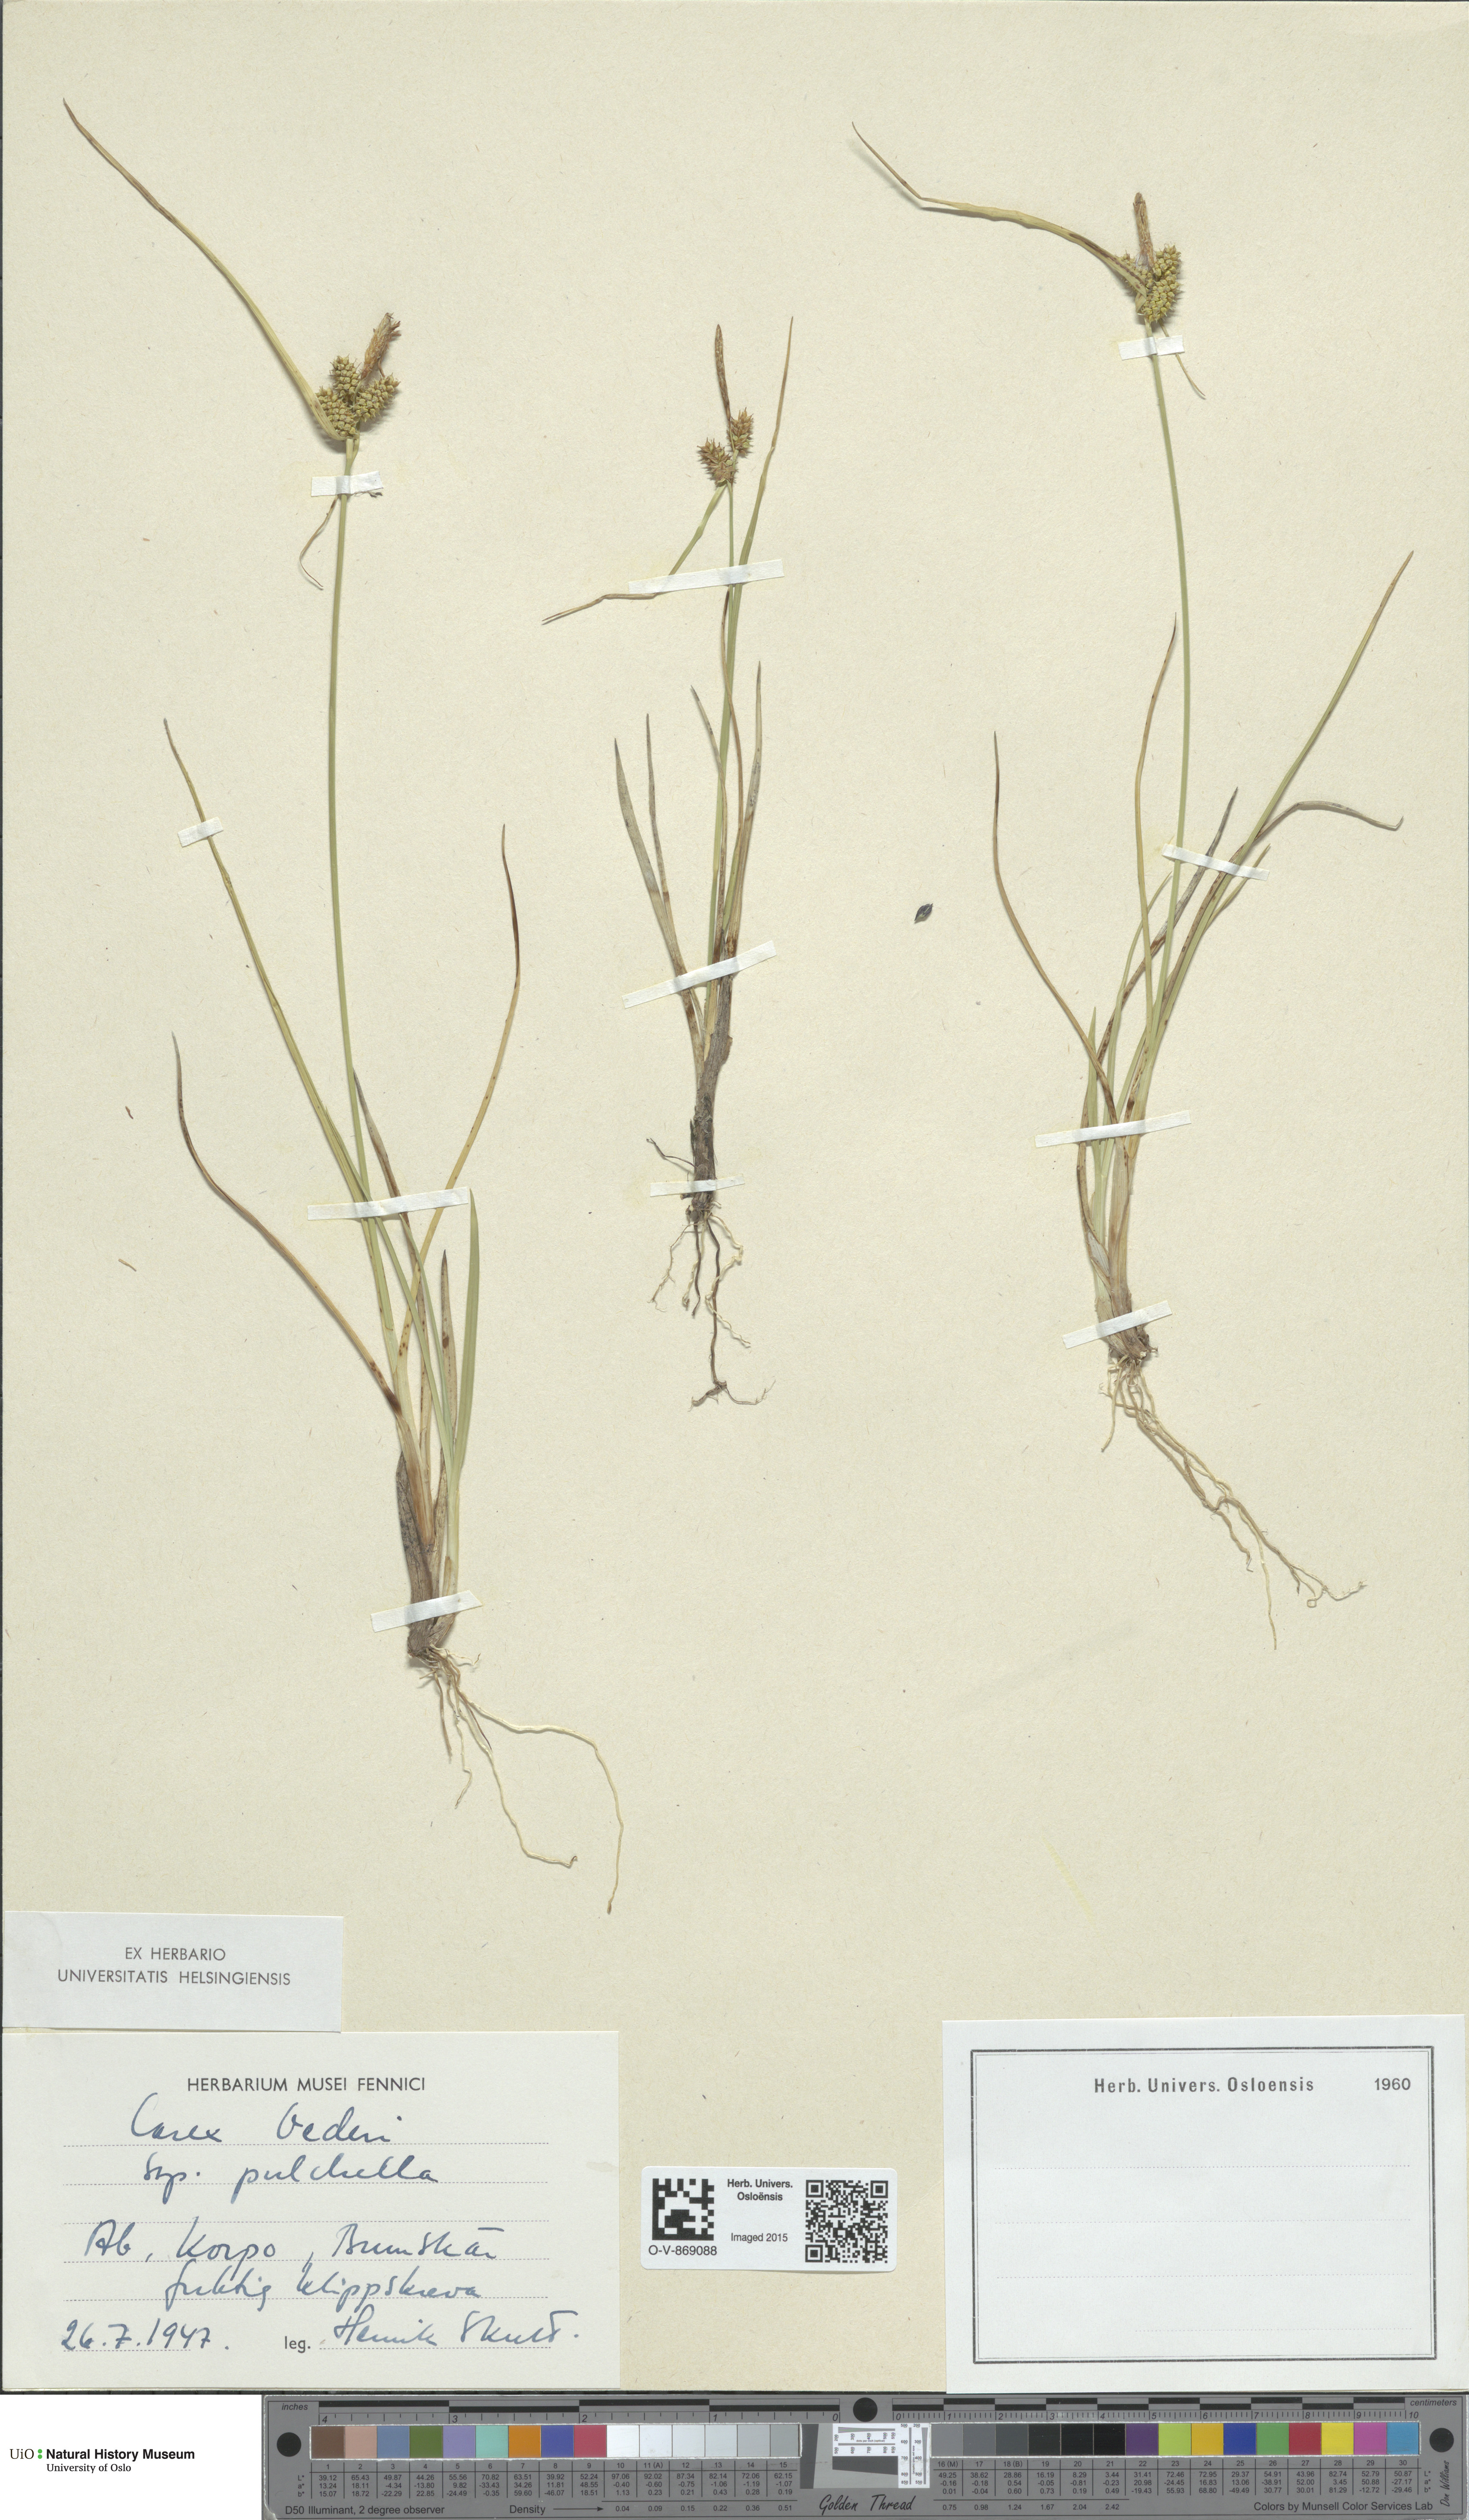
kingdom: Plantae
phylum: Tracheophyta
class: Liliopsida
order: Poales
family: Cyperaceae
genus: Carex
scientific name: Carex oederi
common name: Common & small-fruited yellow-sedge
